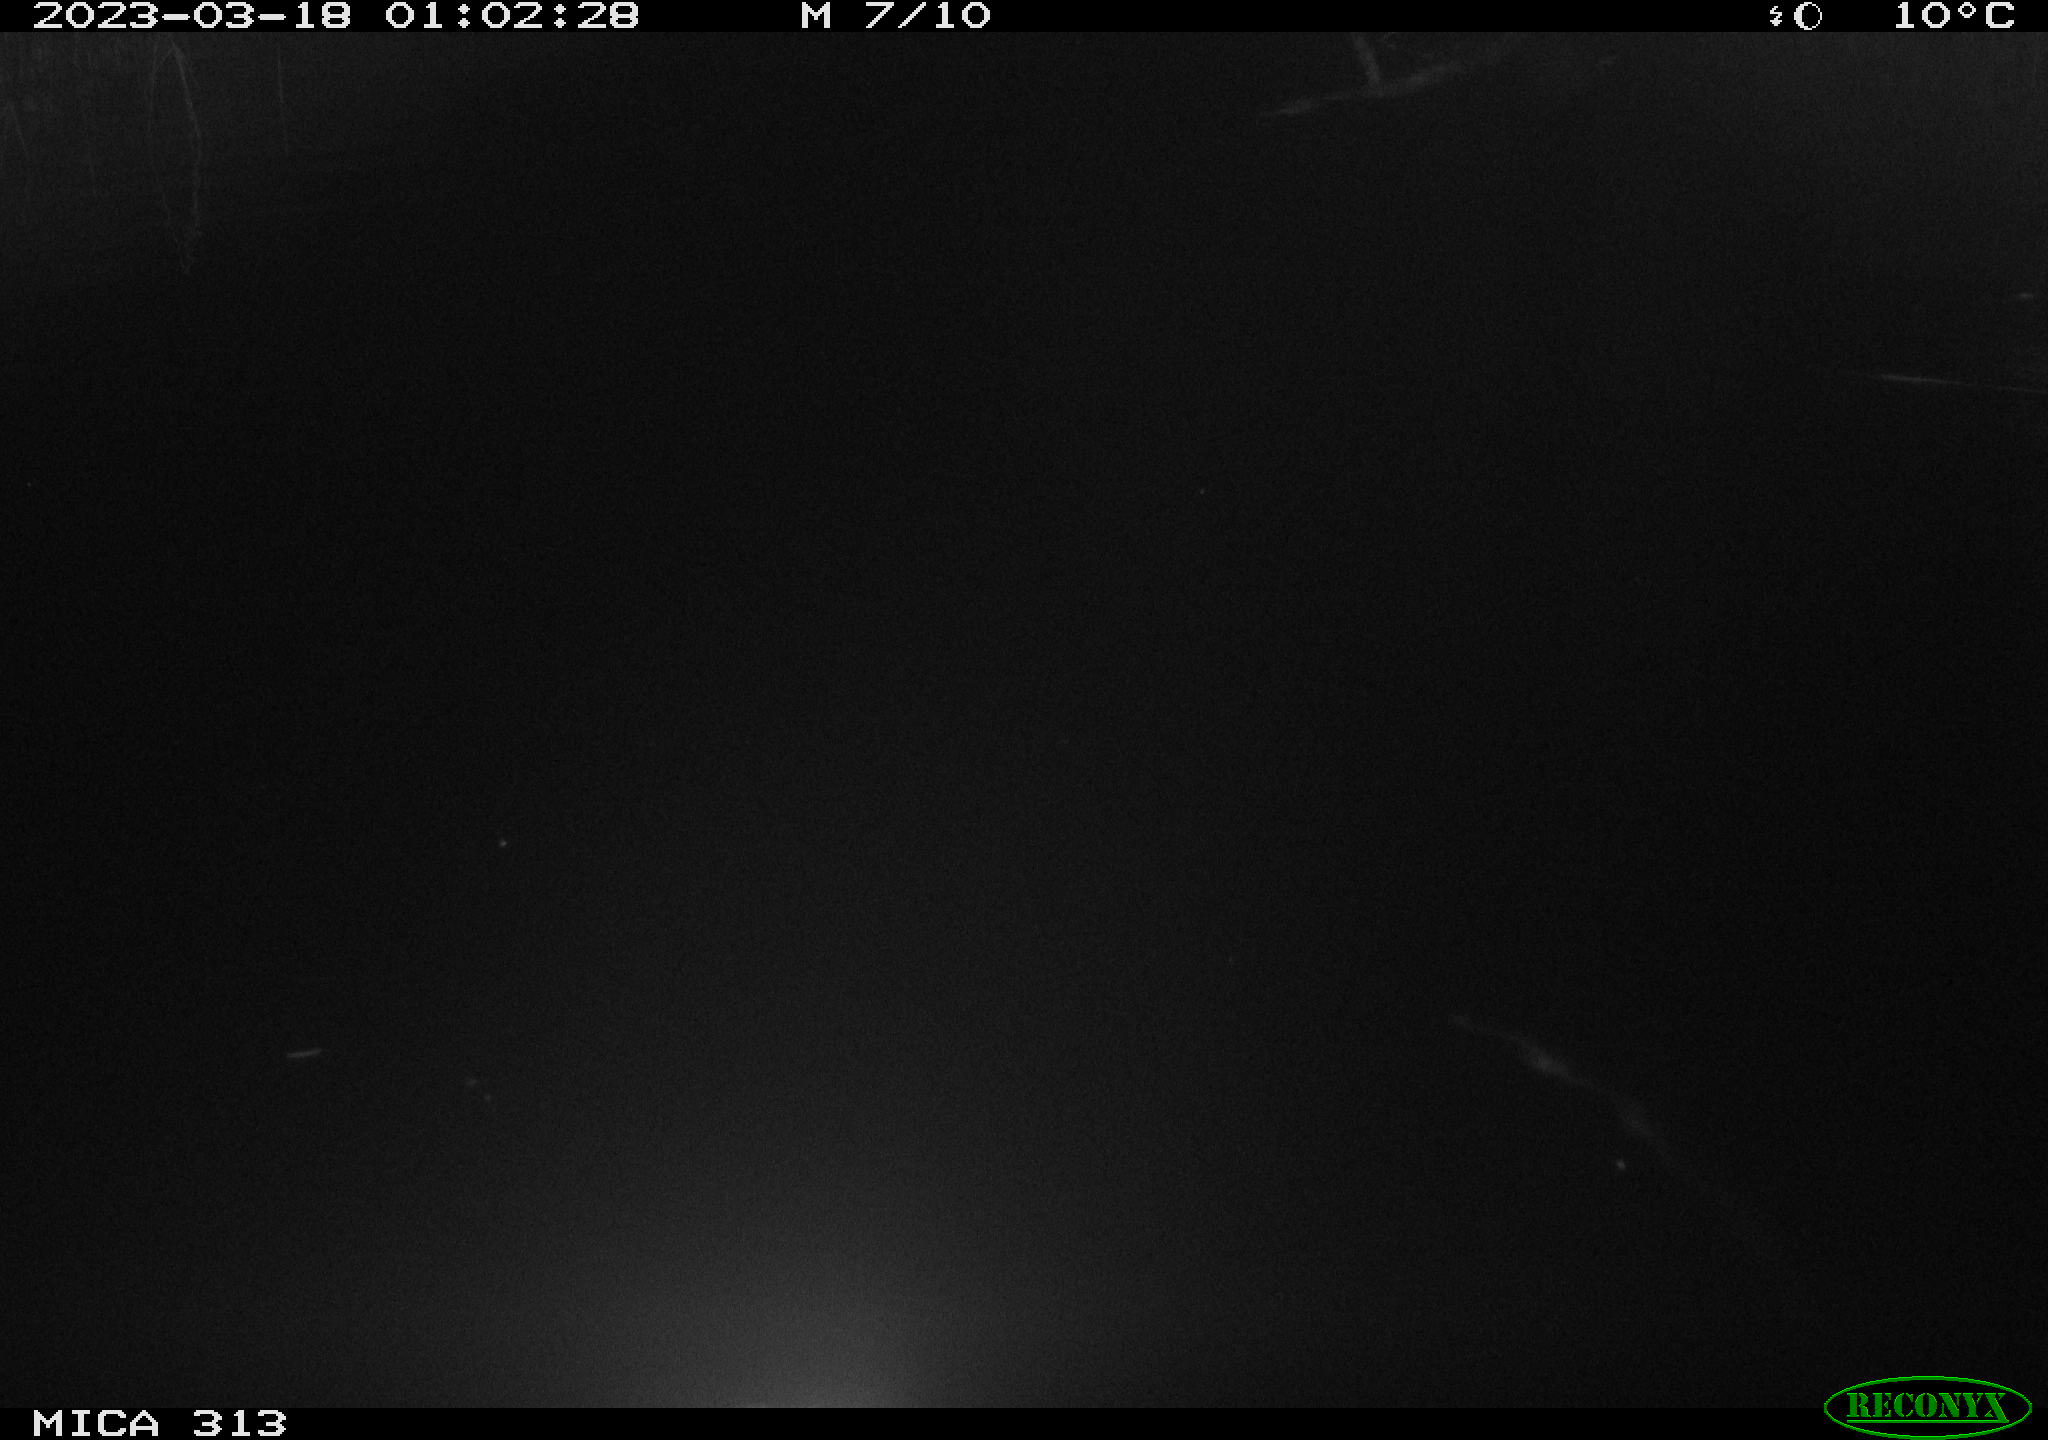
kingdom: Animalia
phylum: Chordata
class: Aves
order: Anseriformes
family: Anatidae
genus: Anas
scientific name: Anas
